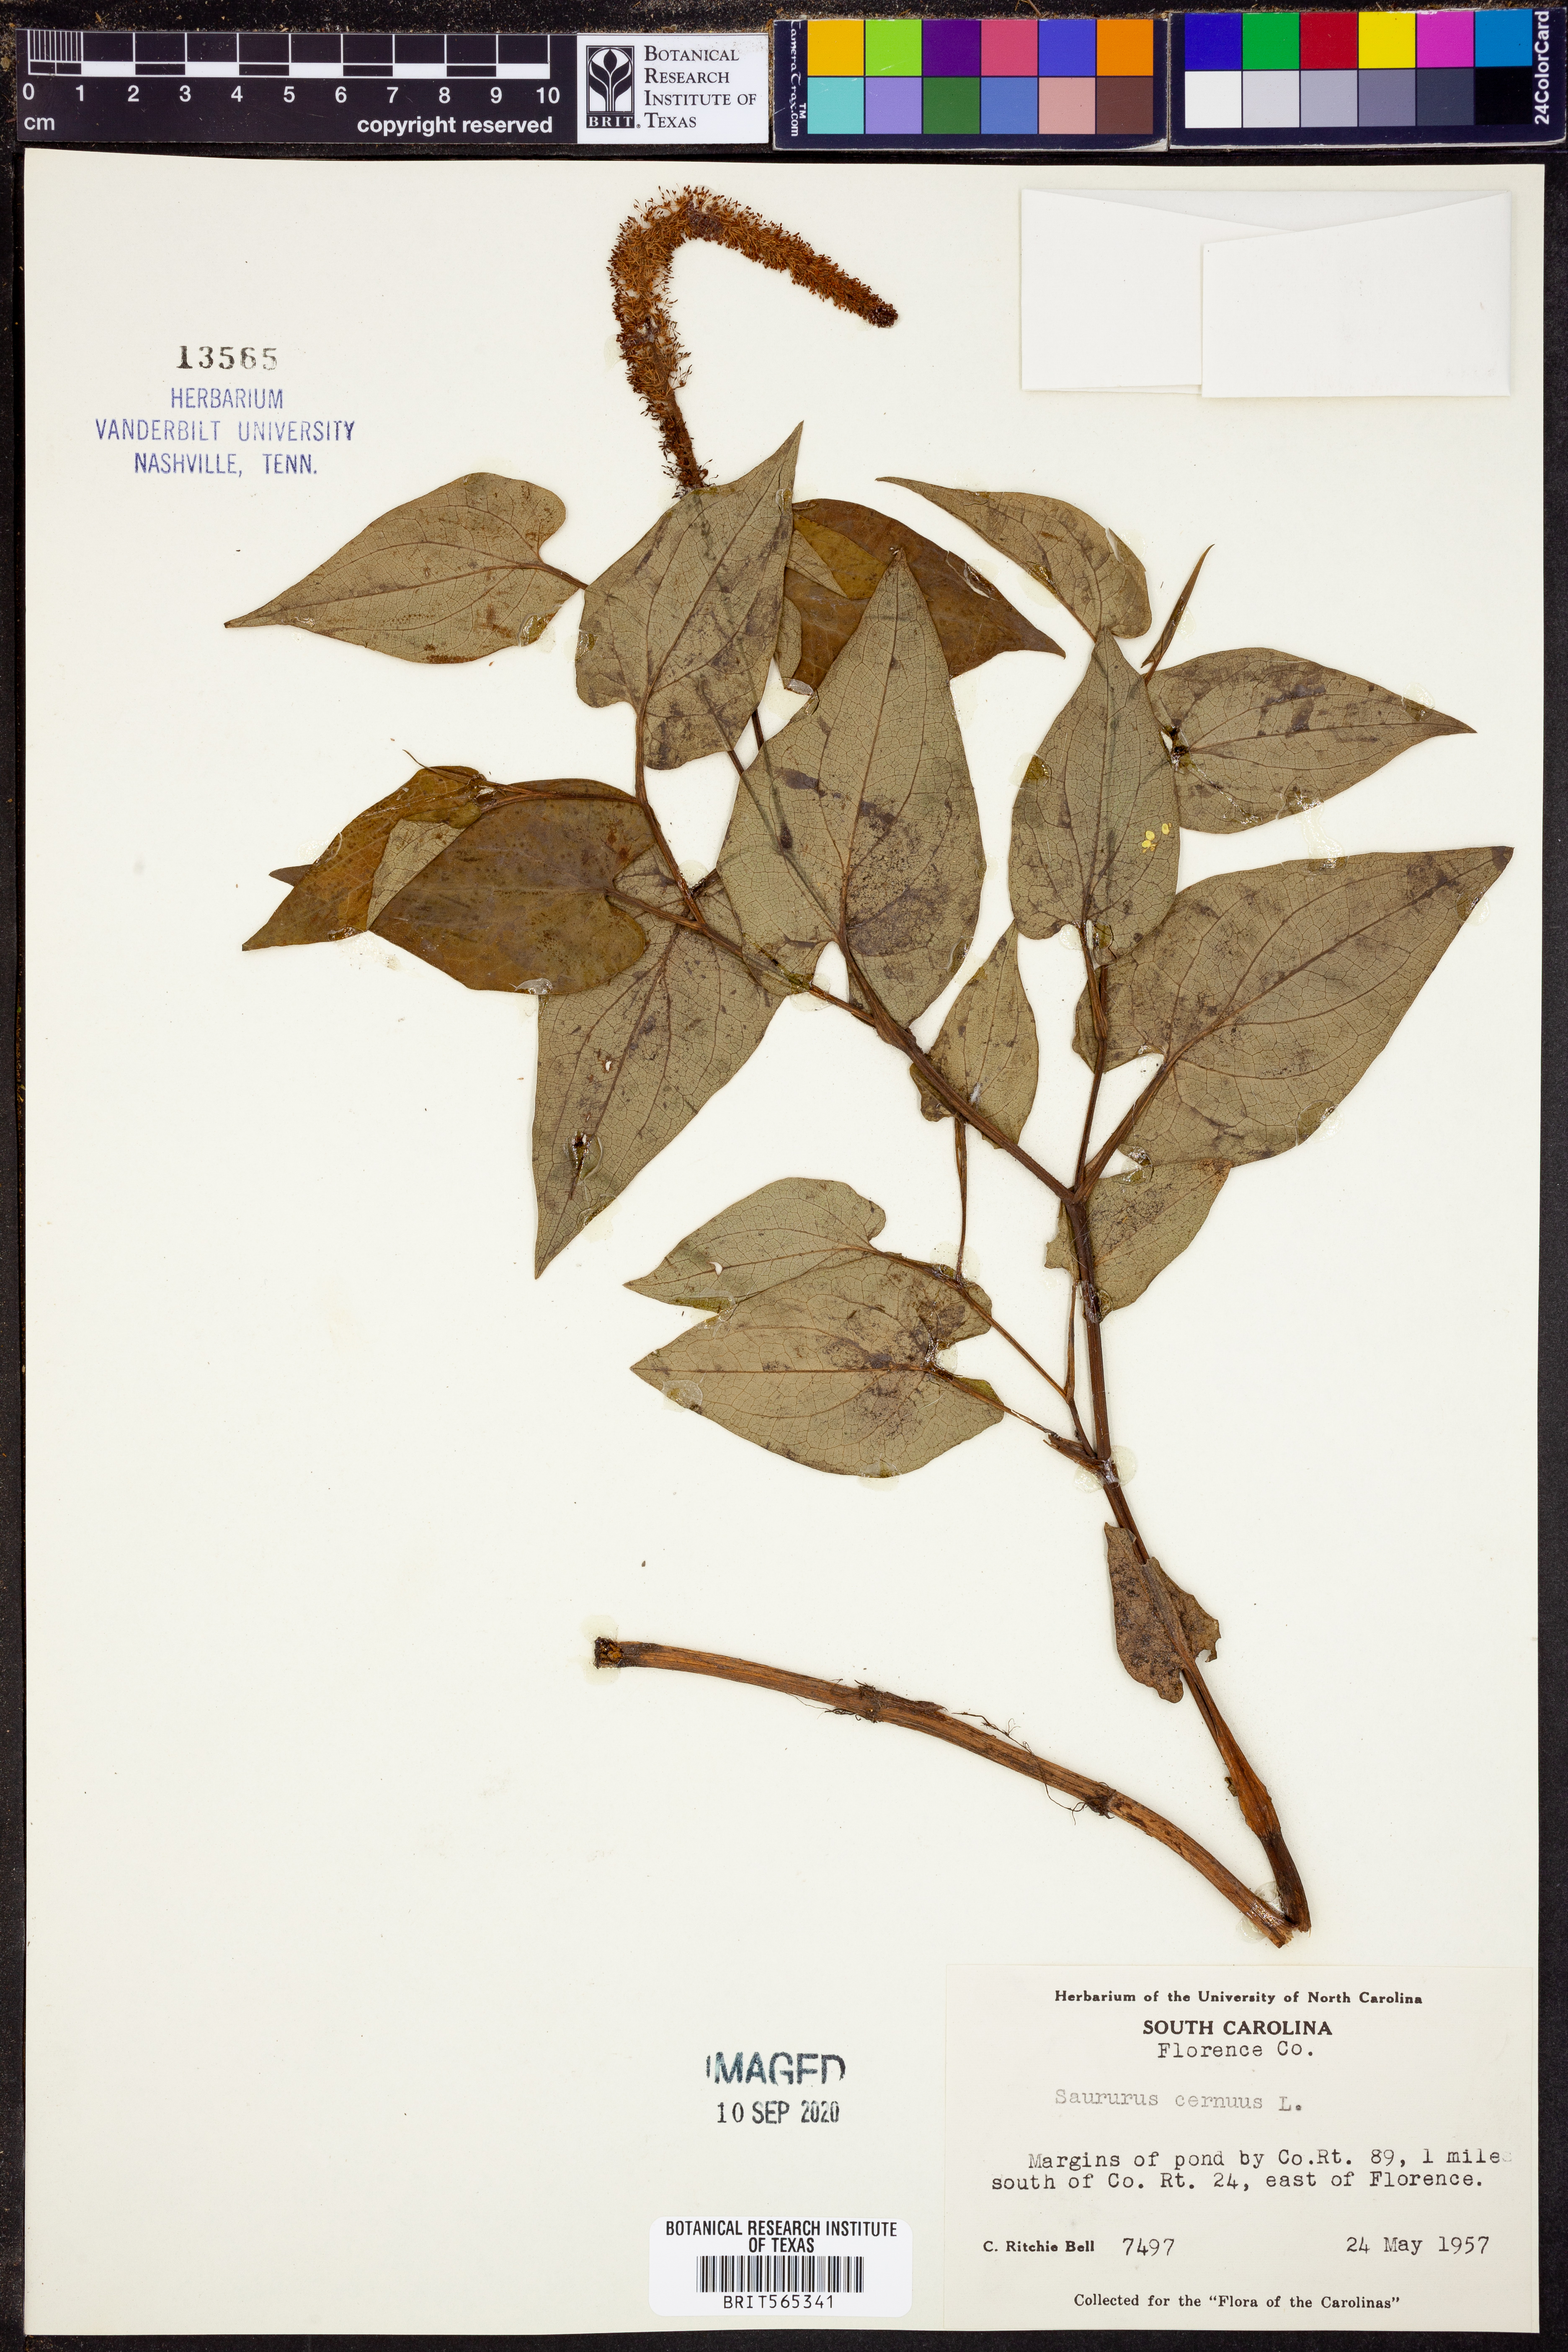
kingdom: Plantae
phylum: Tracheophyta
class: Magnoliopsida
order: Piperales
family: Saururaceae
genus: Saururus
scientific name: Saururus cernuus
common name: Lizard's-tail
